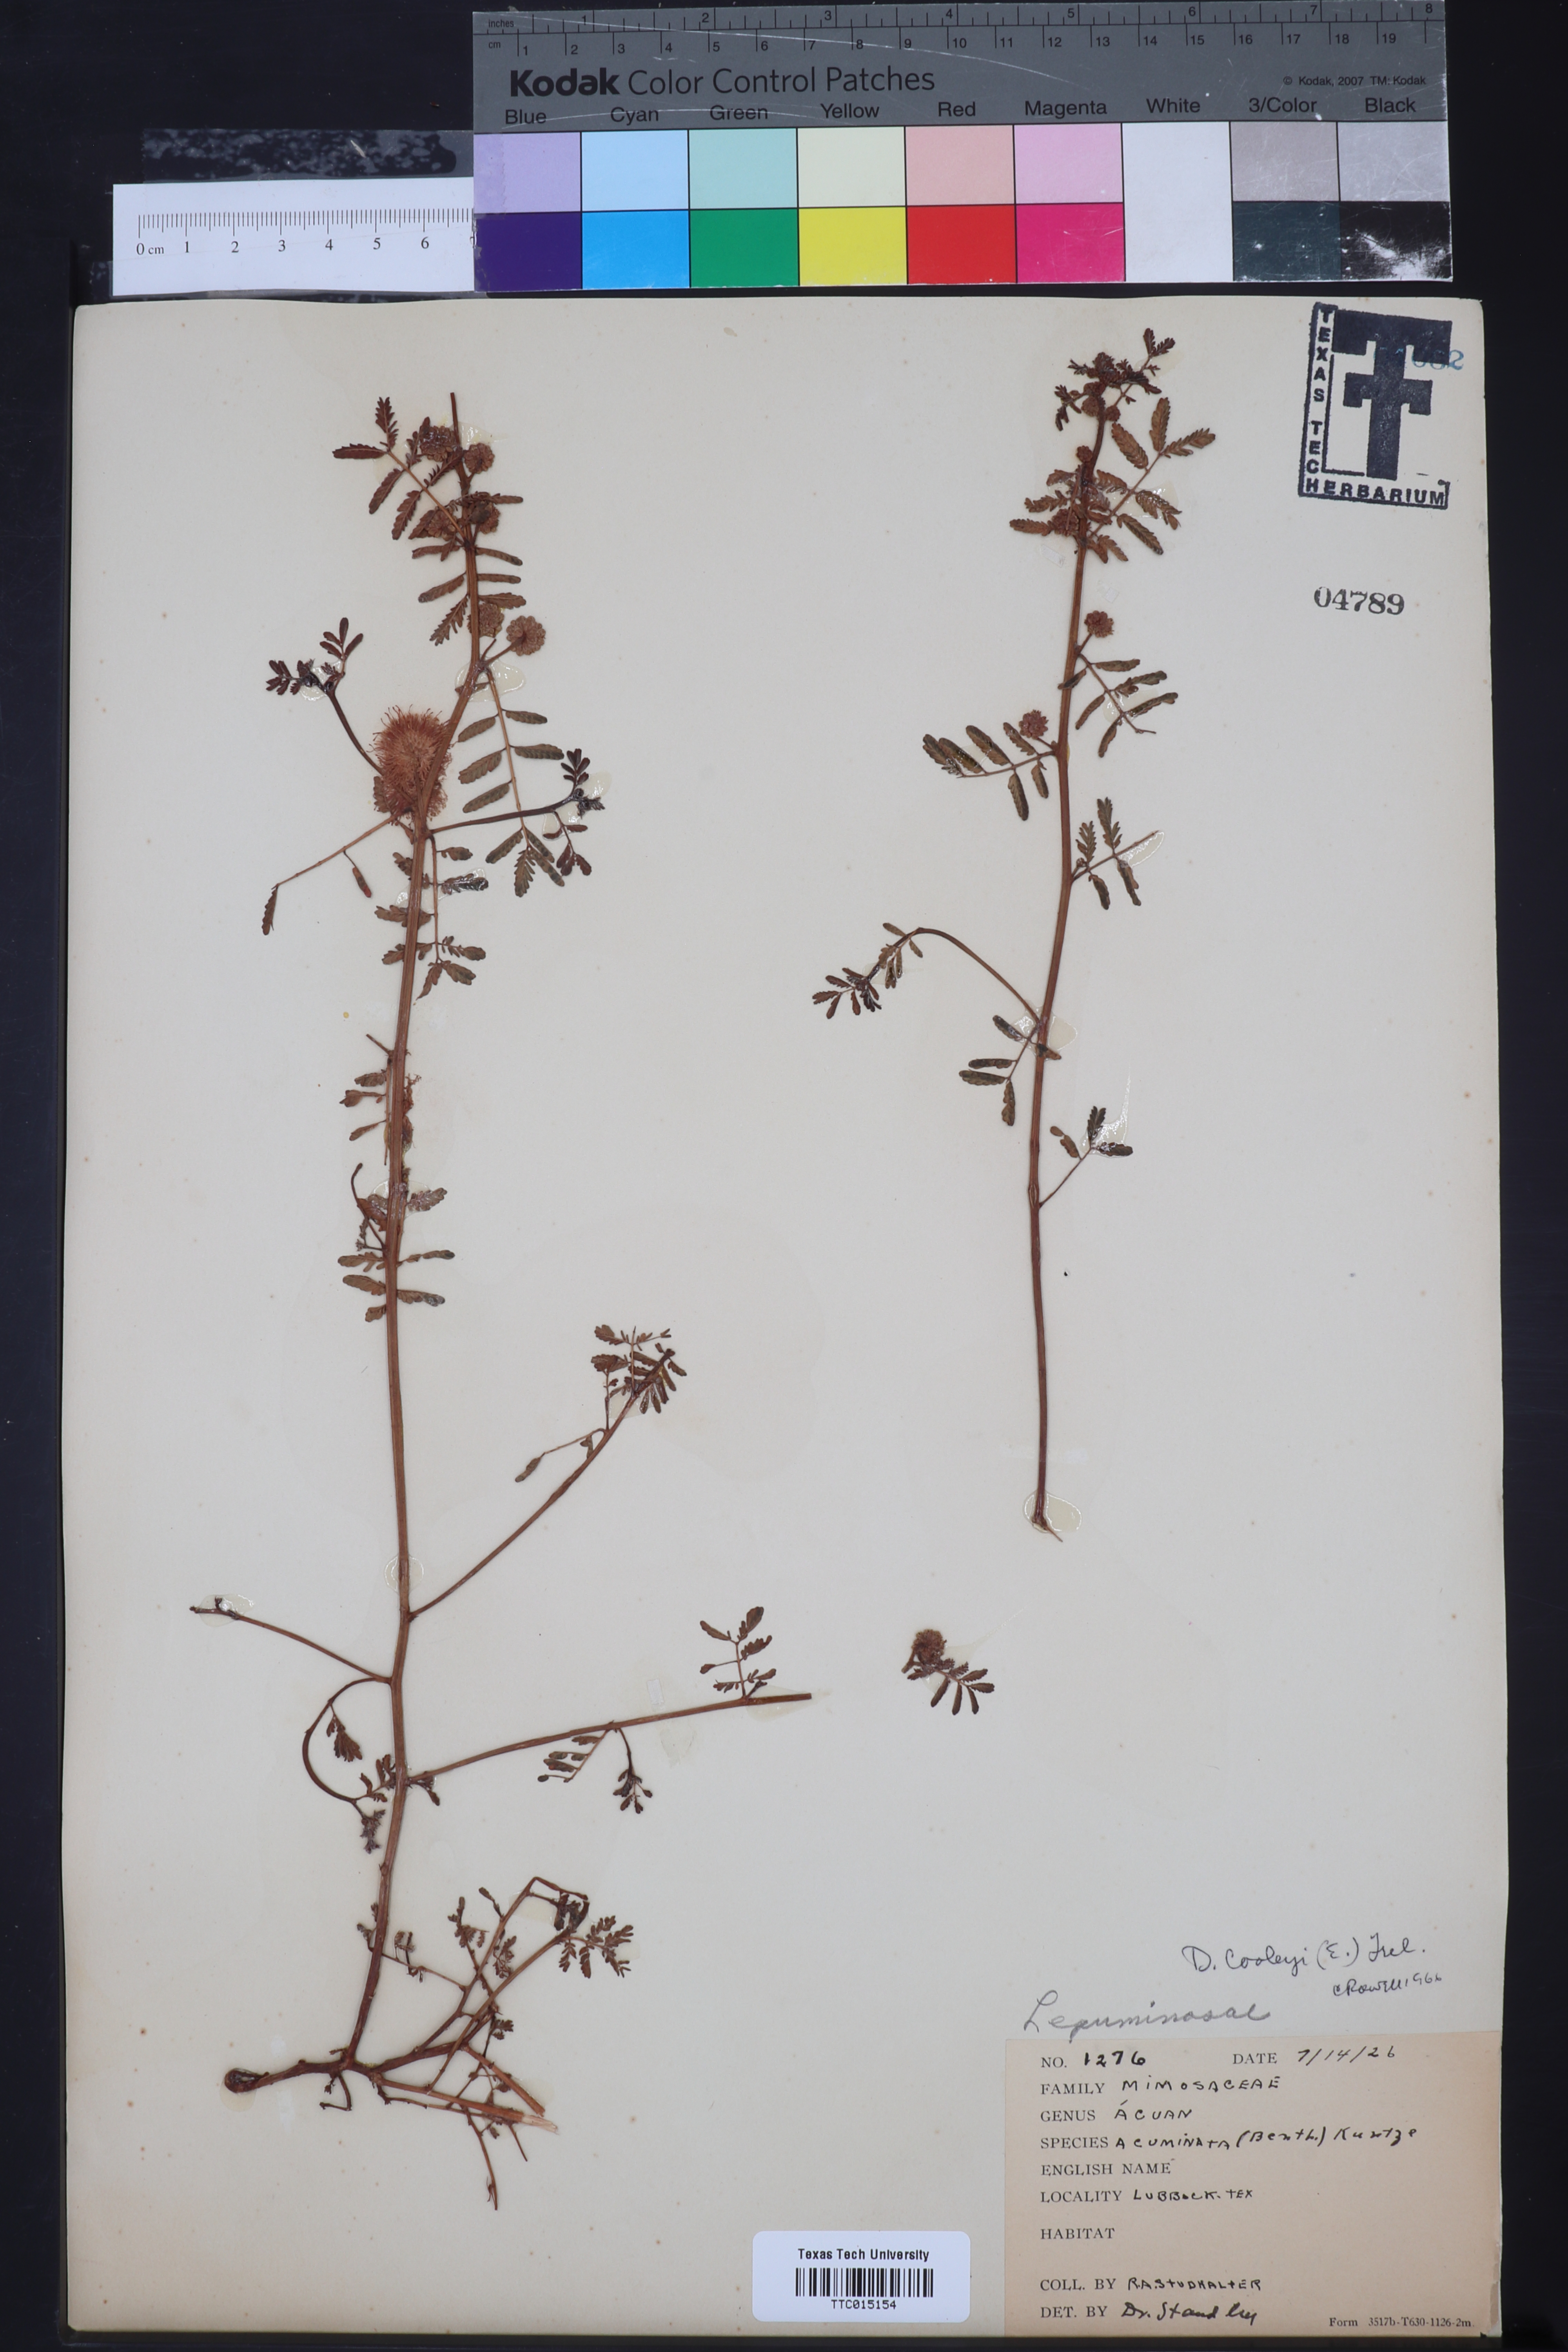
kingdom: Plantae
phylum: Tracheophyta
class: Magnoliopsida
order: Fabales
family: Fabaceae
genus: Desmanthus
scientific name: Desmanthus cooleyi
